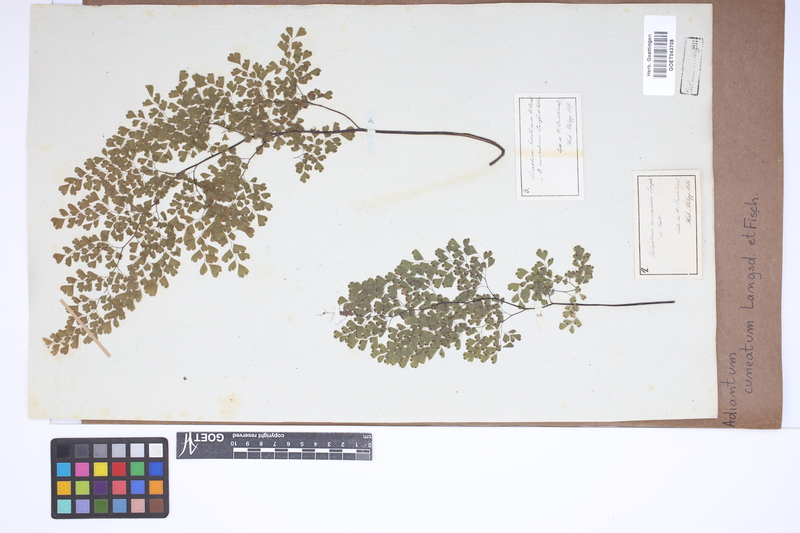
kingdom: Plantae
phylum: Tracheophyta
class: Polypodiopsida
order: Polypodiales
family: Pteridaceae
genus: Adiantum
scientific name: Adiantum raddianum
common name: Delta maidenhair fern
